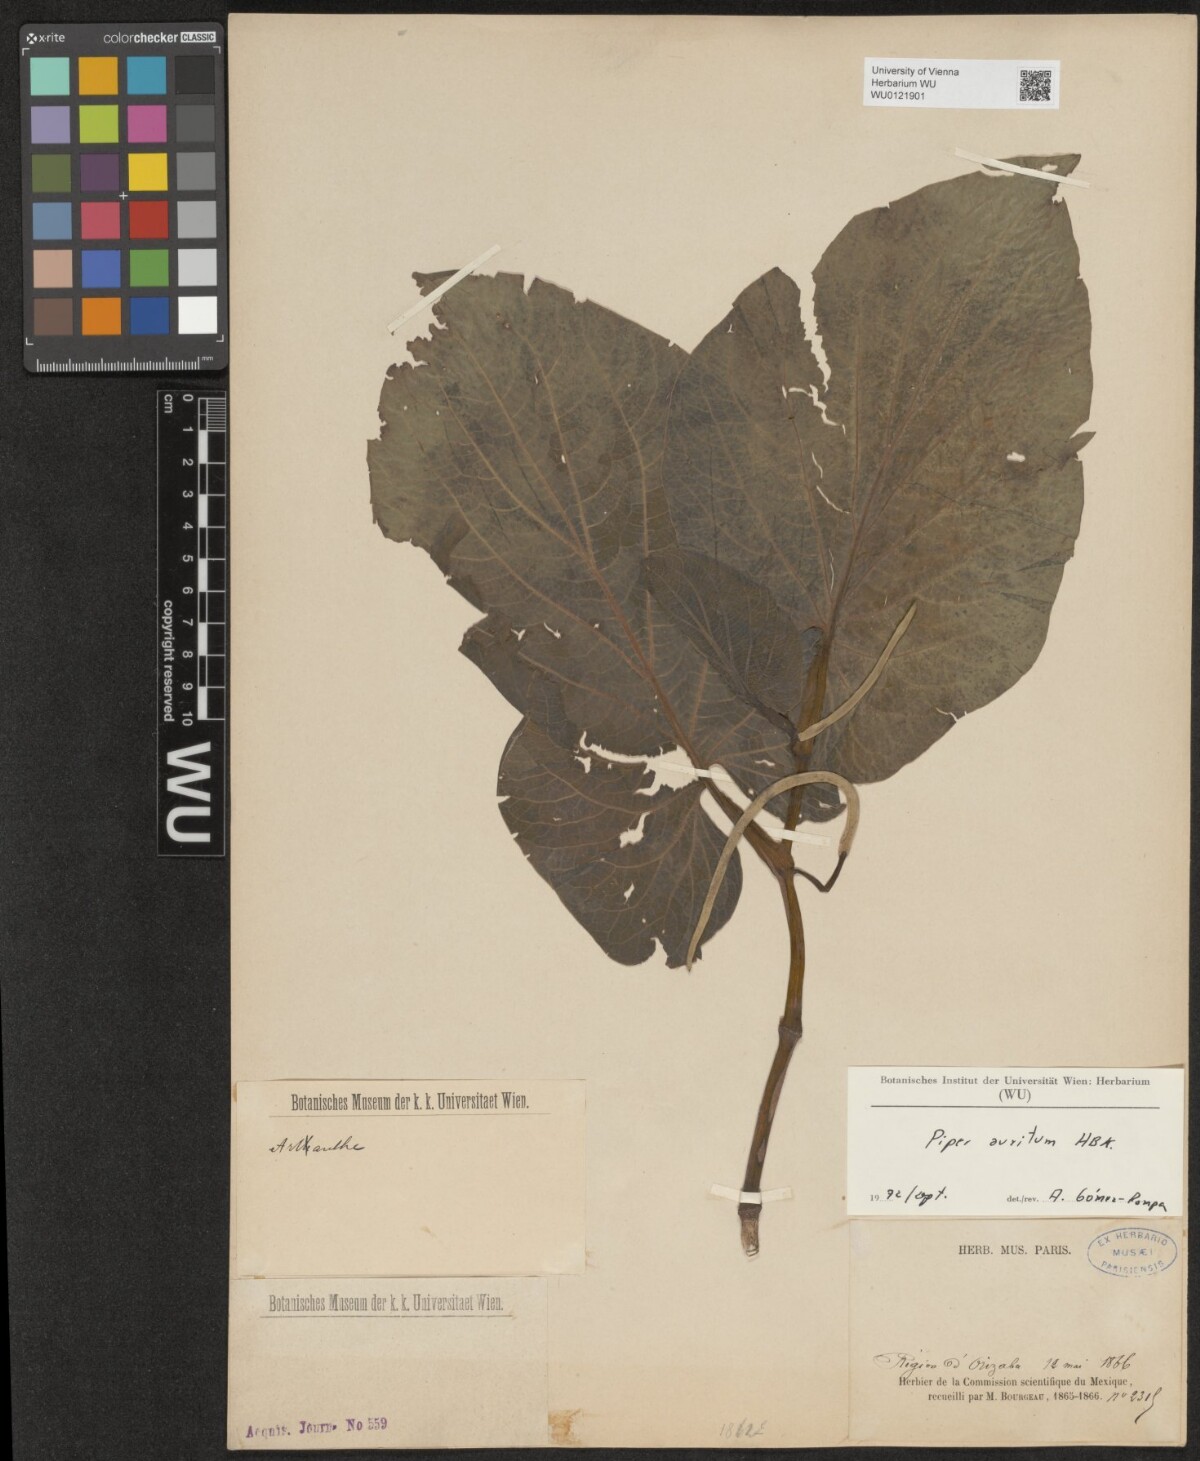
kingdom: Plantae
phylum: Tracheophyta
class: Magnoliopsida
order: Piperales
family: Piperaceae
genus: Piper
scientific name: Piper auritum
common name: Vera cruz pepper
